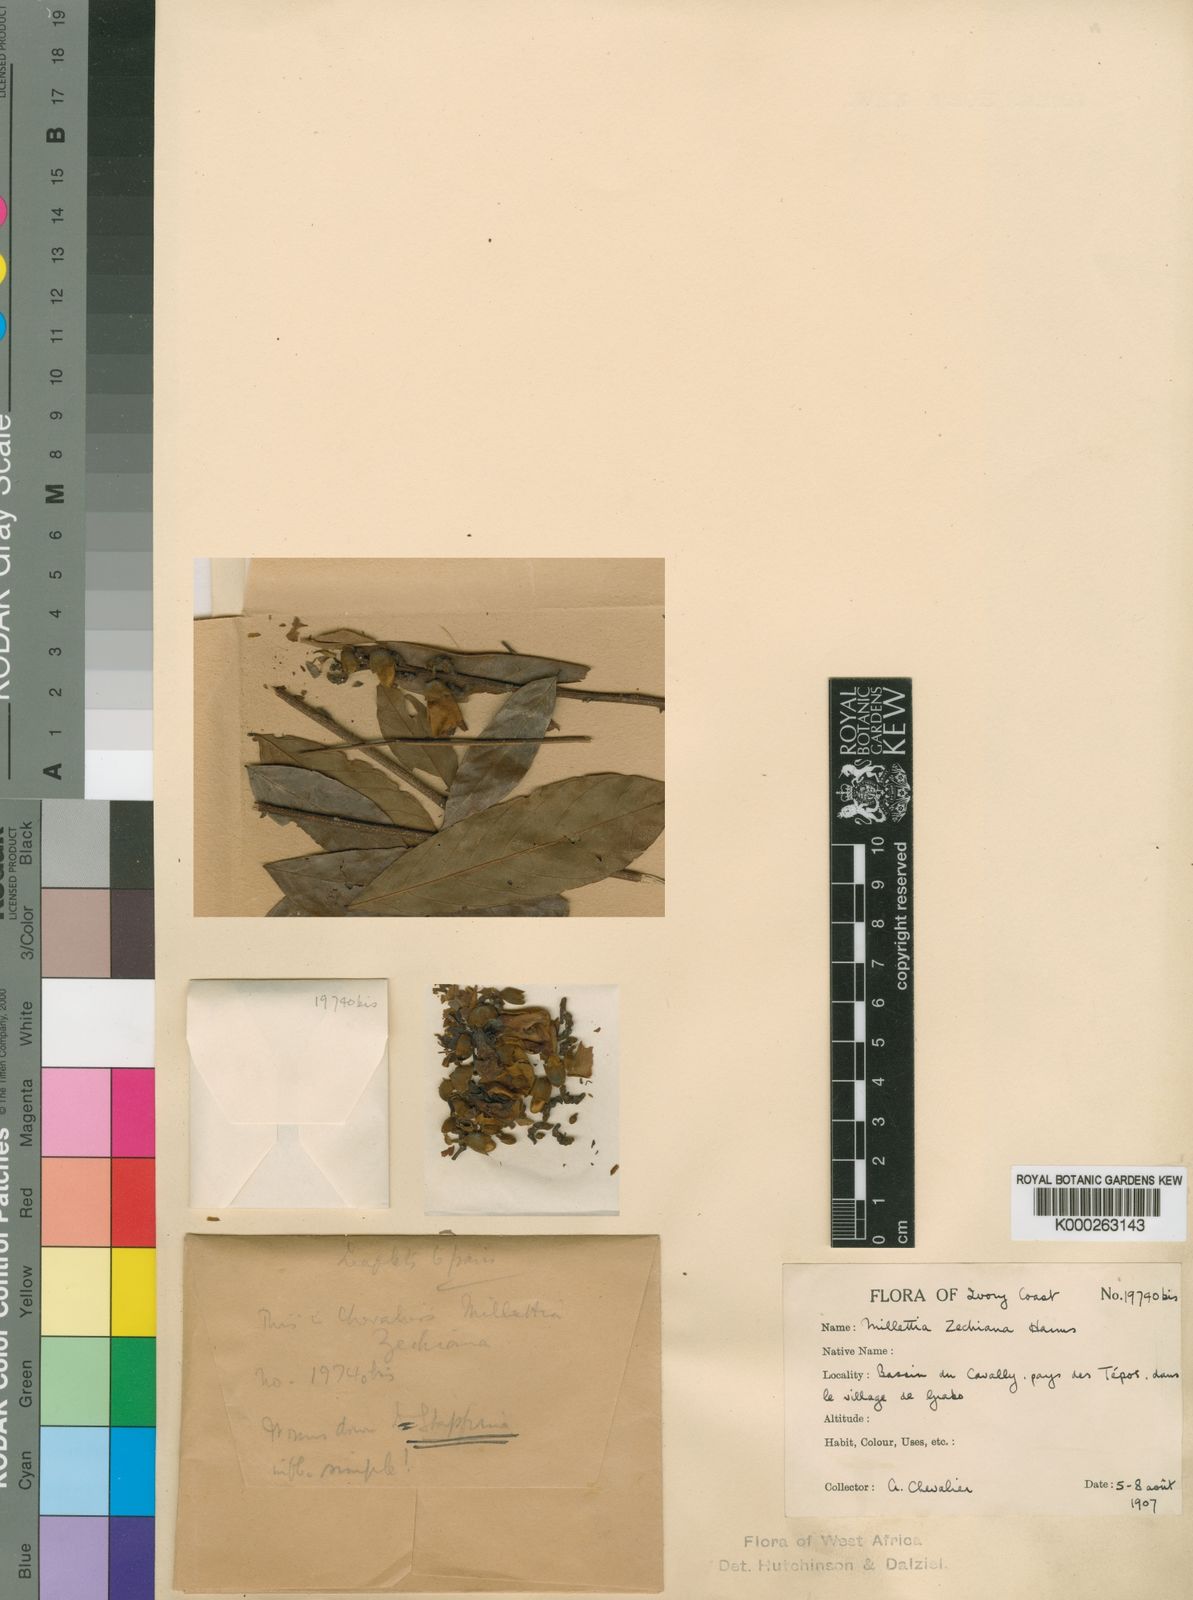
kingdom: Plantae
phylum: Tracheophyta
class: Magnoliopsida
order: Fabales
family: Fabaceae
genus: Millettia
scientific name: Millettia zechiana
